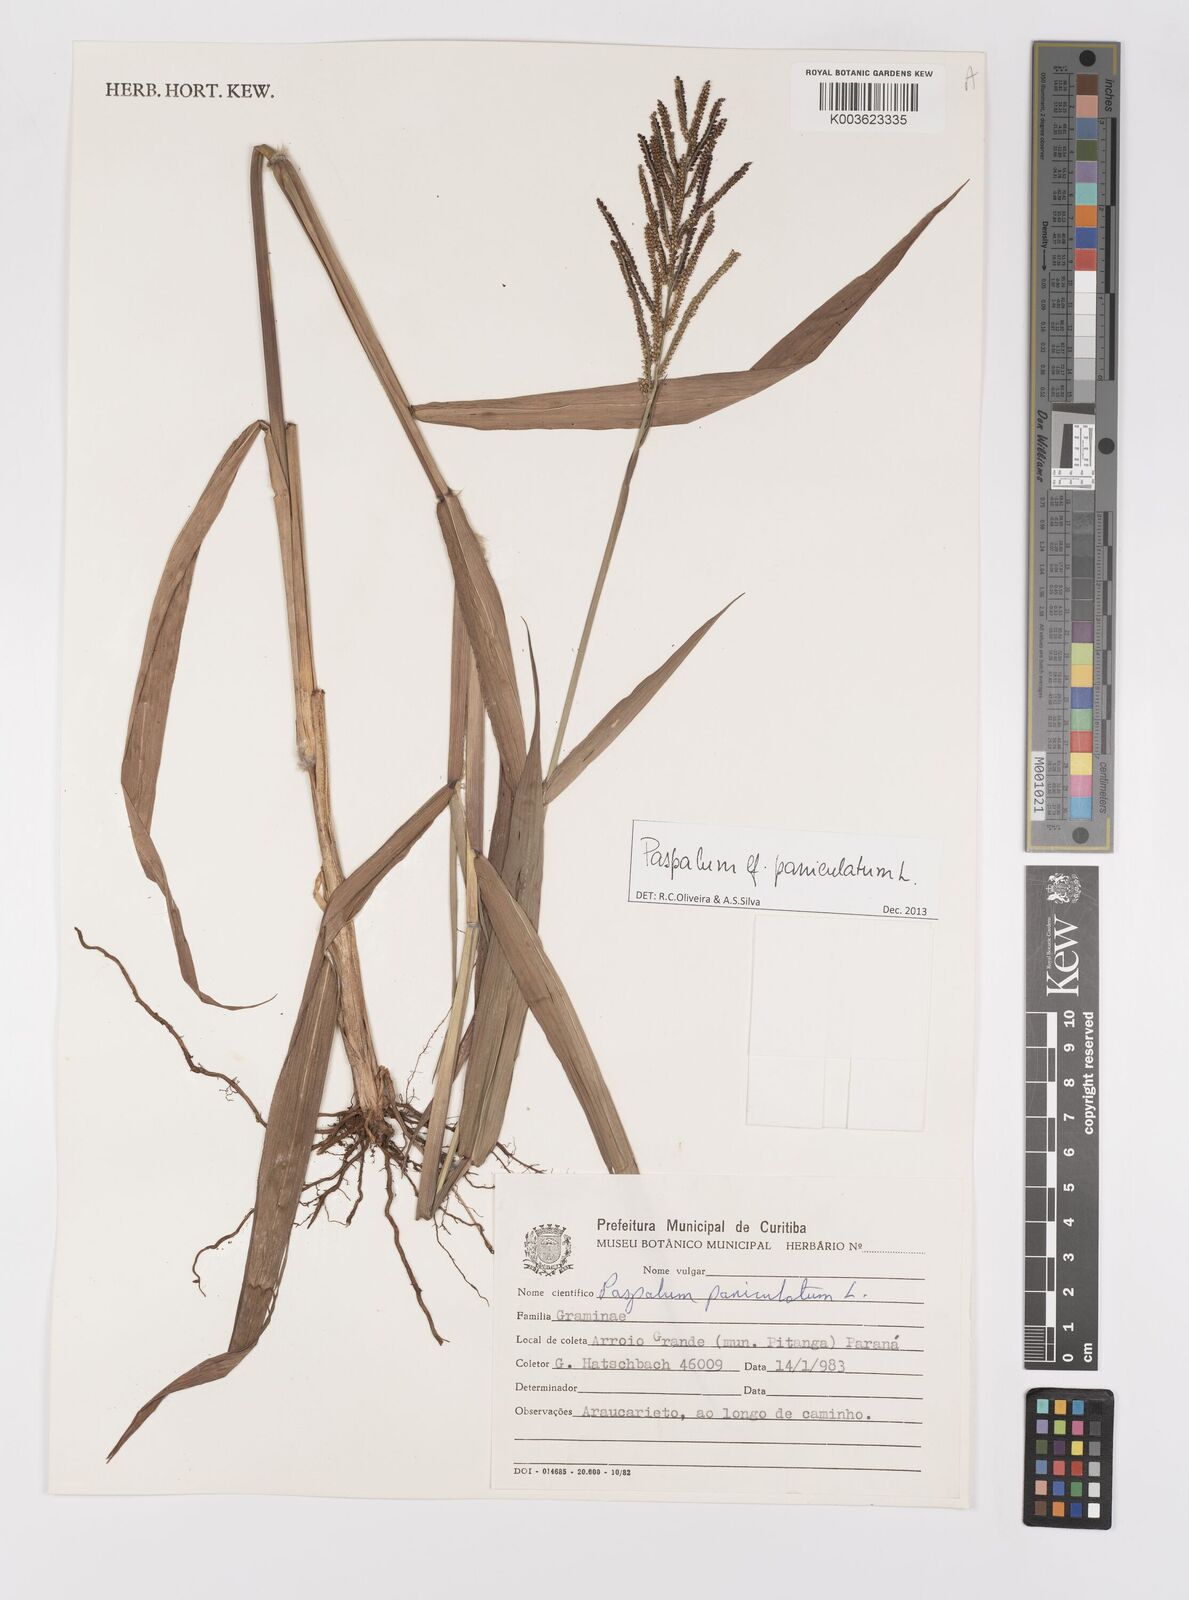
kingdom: Plantae
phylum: Tracheophyta
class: Liliopsida
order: Poales
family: Poaceae
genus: Paspalum
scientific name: Paspalum paniculatum
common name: Arrocillo
